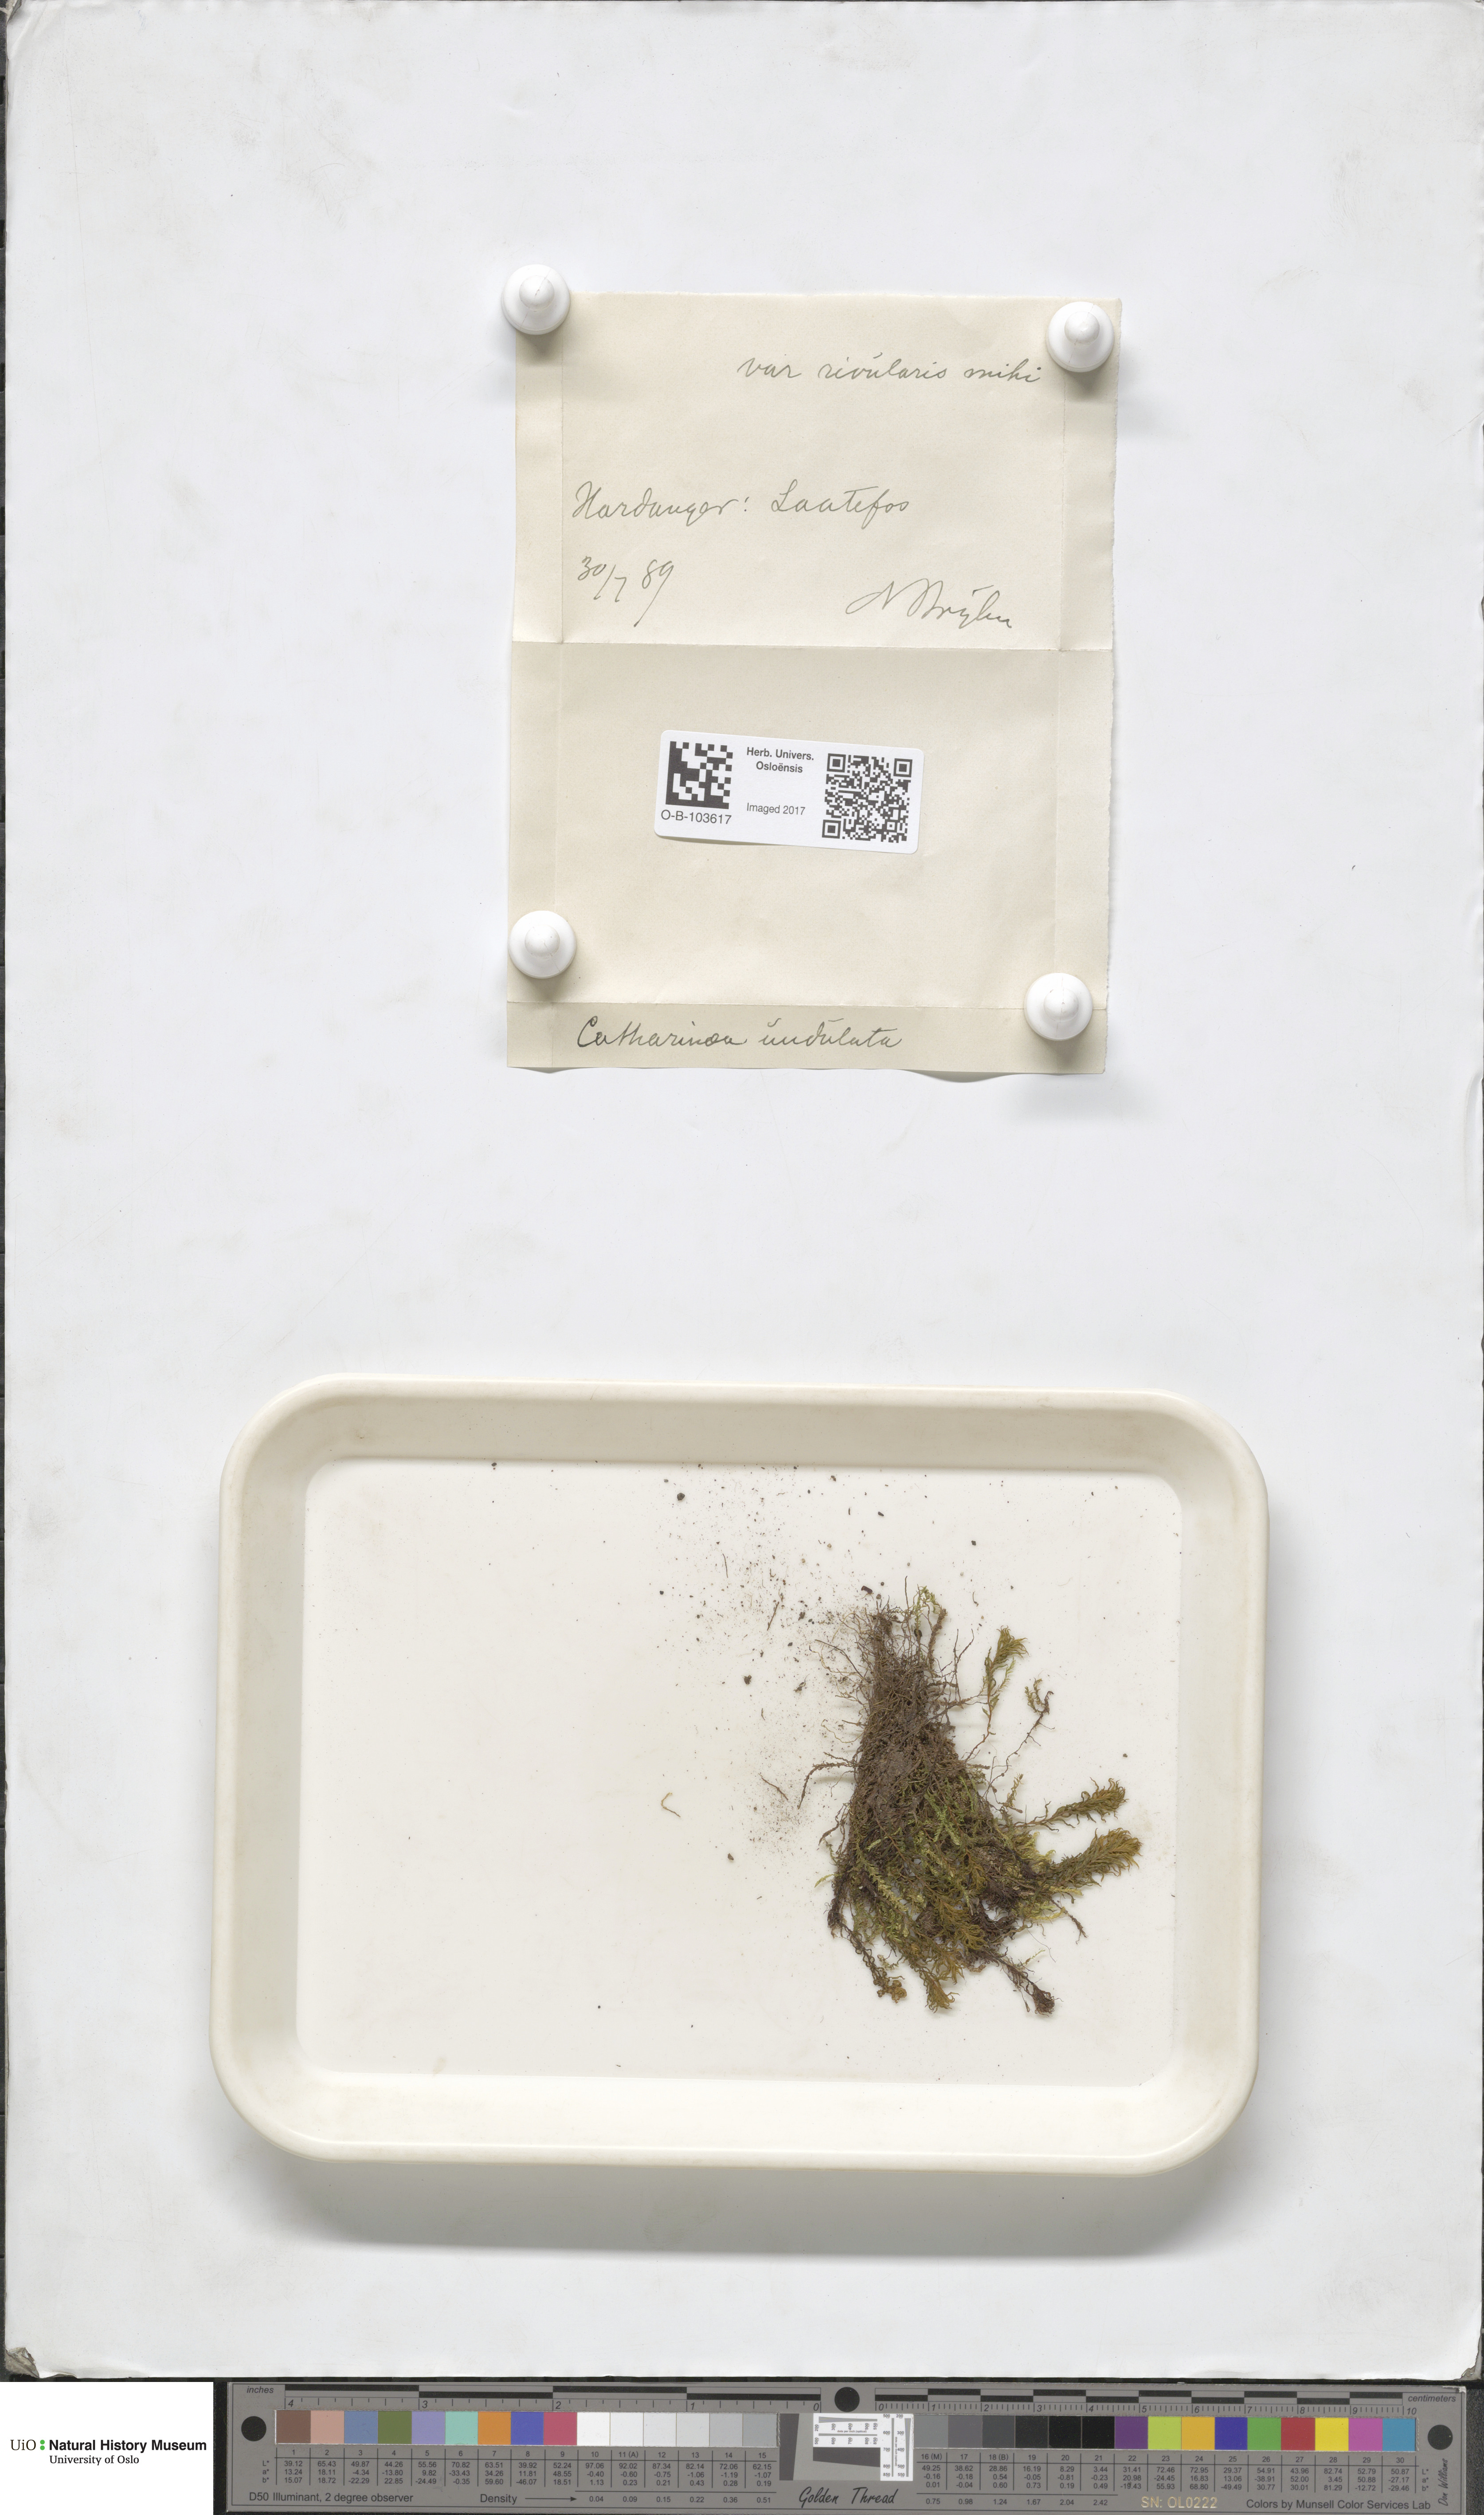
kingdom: Plantae
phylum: Bryophyta
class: Polytrichopsida
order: Polytrichales
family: Polytrichaceae
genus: Atrichum
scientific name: Atrichum undulatum
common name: Common smoothcap
